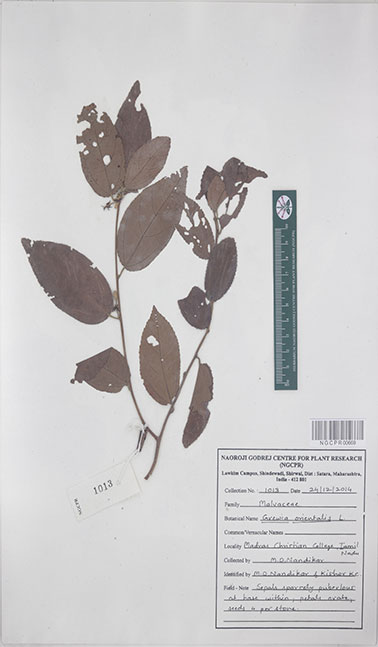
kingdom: Plantae
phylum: Tracheophyta
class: Magnoliopsida
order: Malvales
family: Malvaceae
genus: Grewia
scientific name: Grewia orientalis
